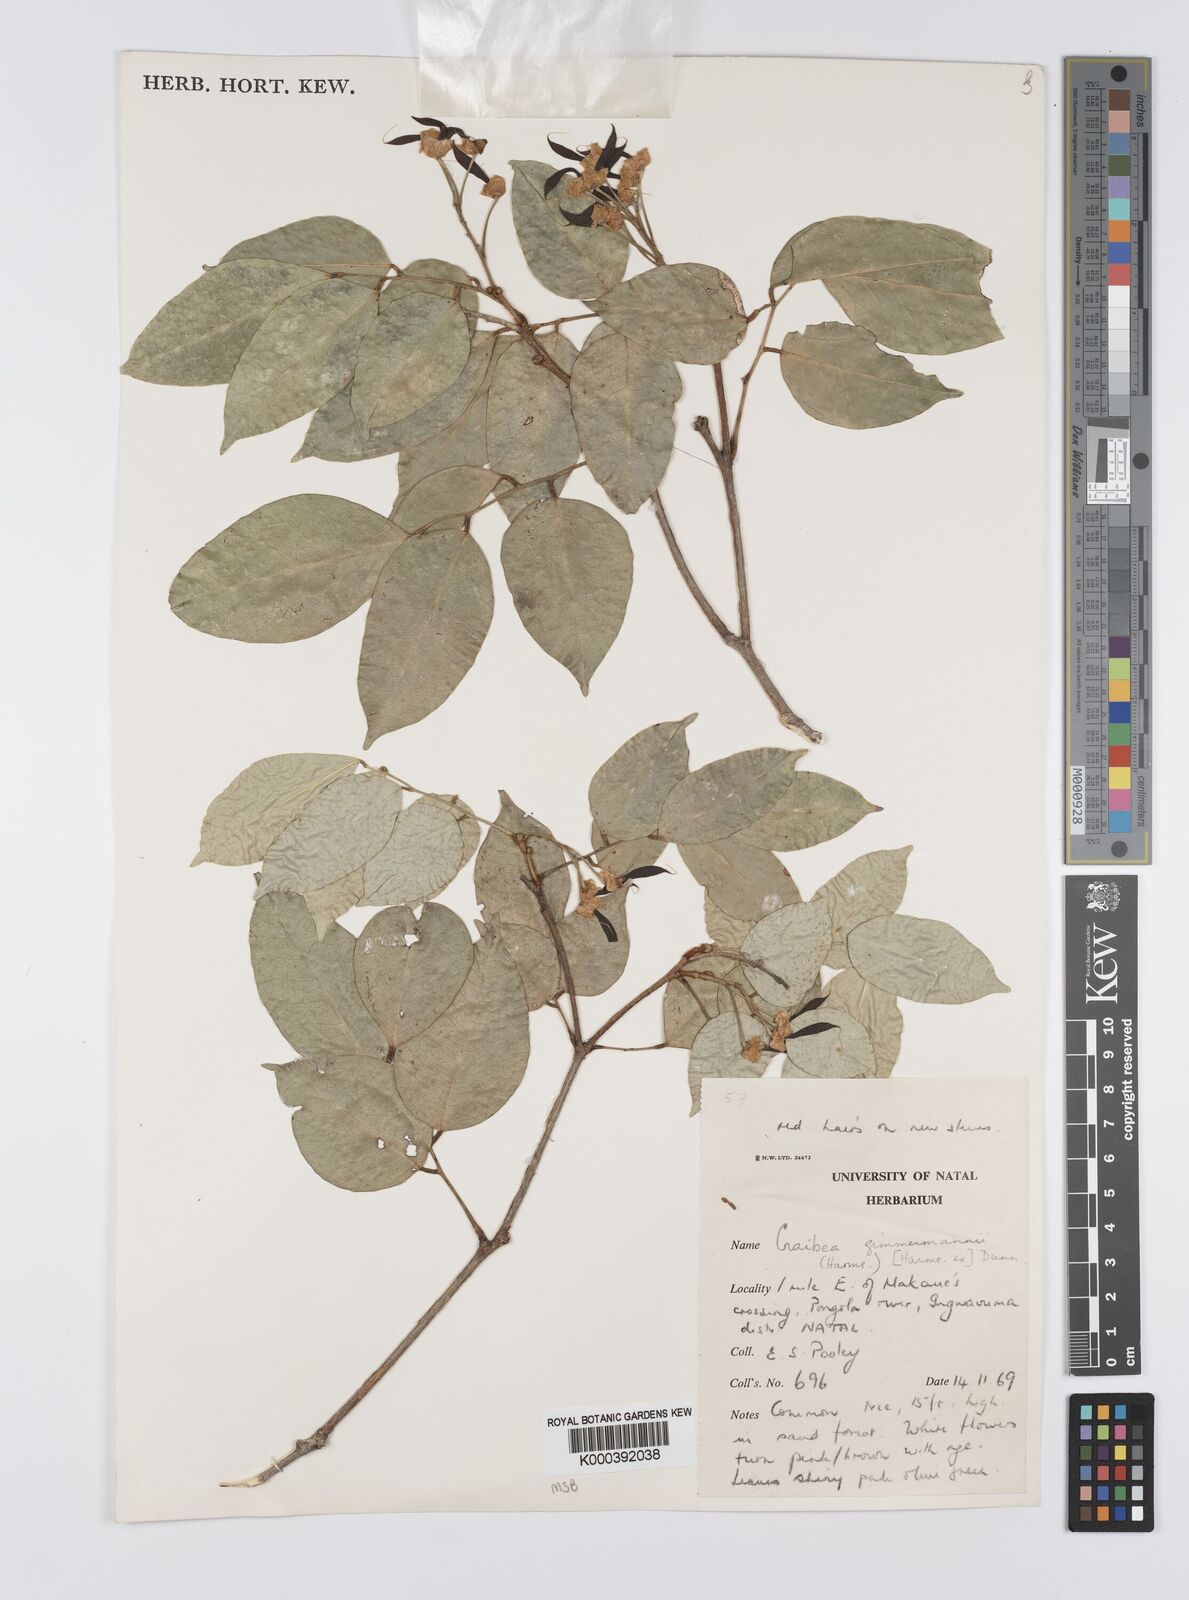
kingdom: Plantae
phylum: Tracheophyta
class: Magnoliopsida
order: Fabales
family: Fabaceae
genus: Craibia
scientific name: Craibia zimmermannii
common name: Sandforest pea-wood
